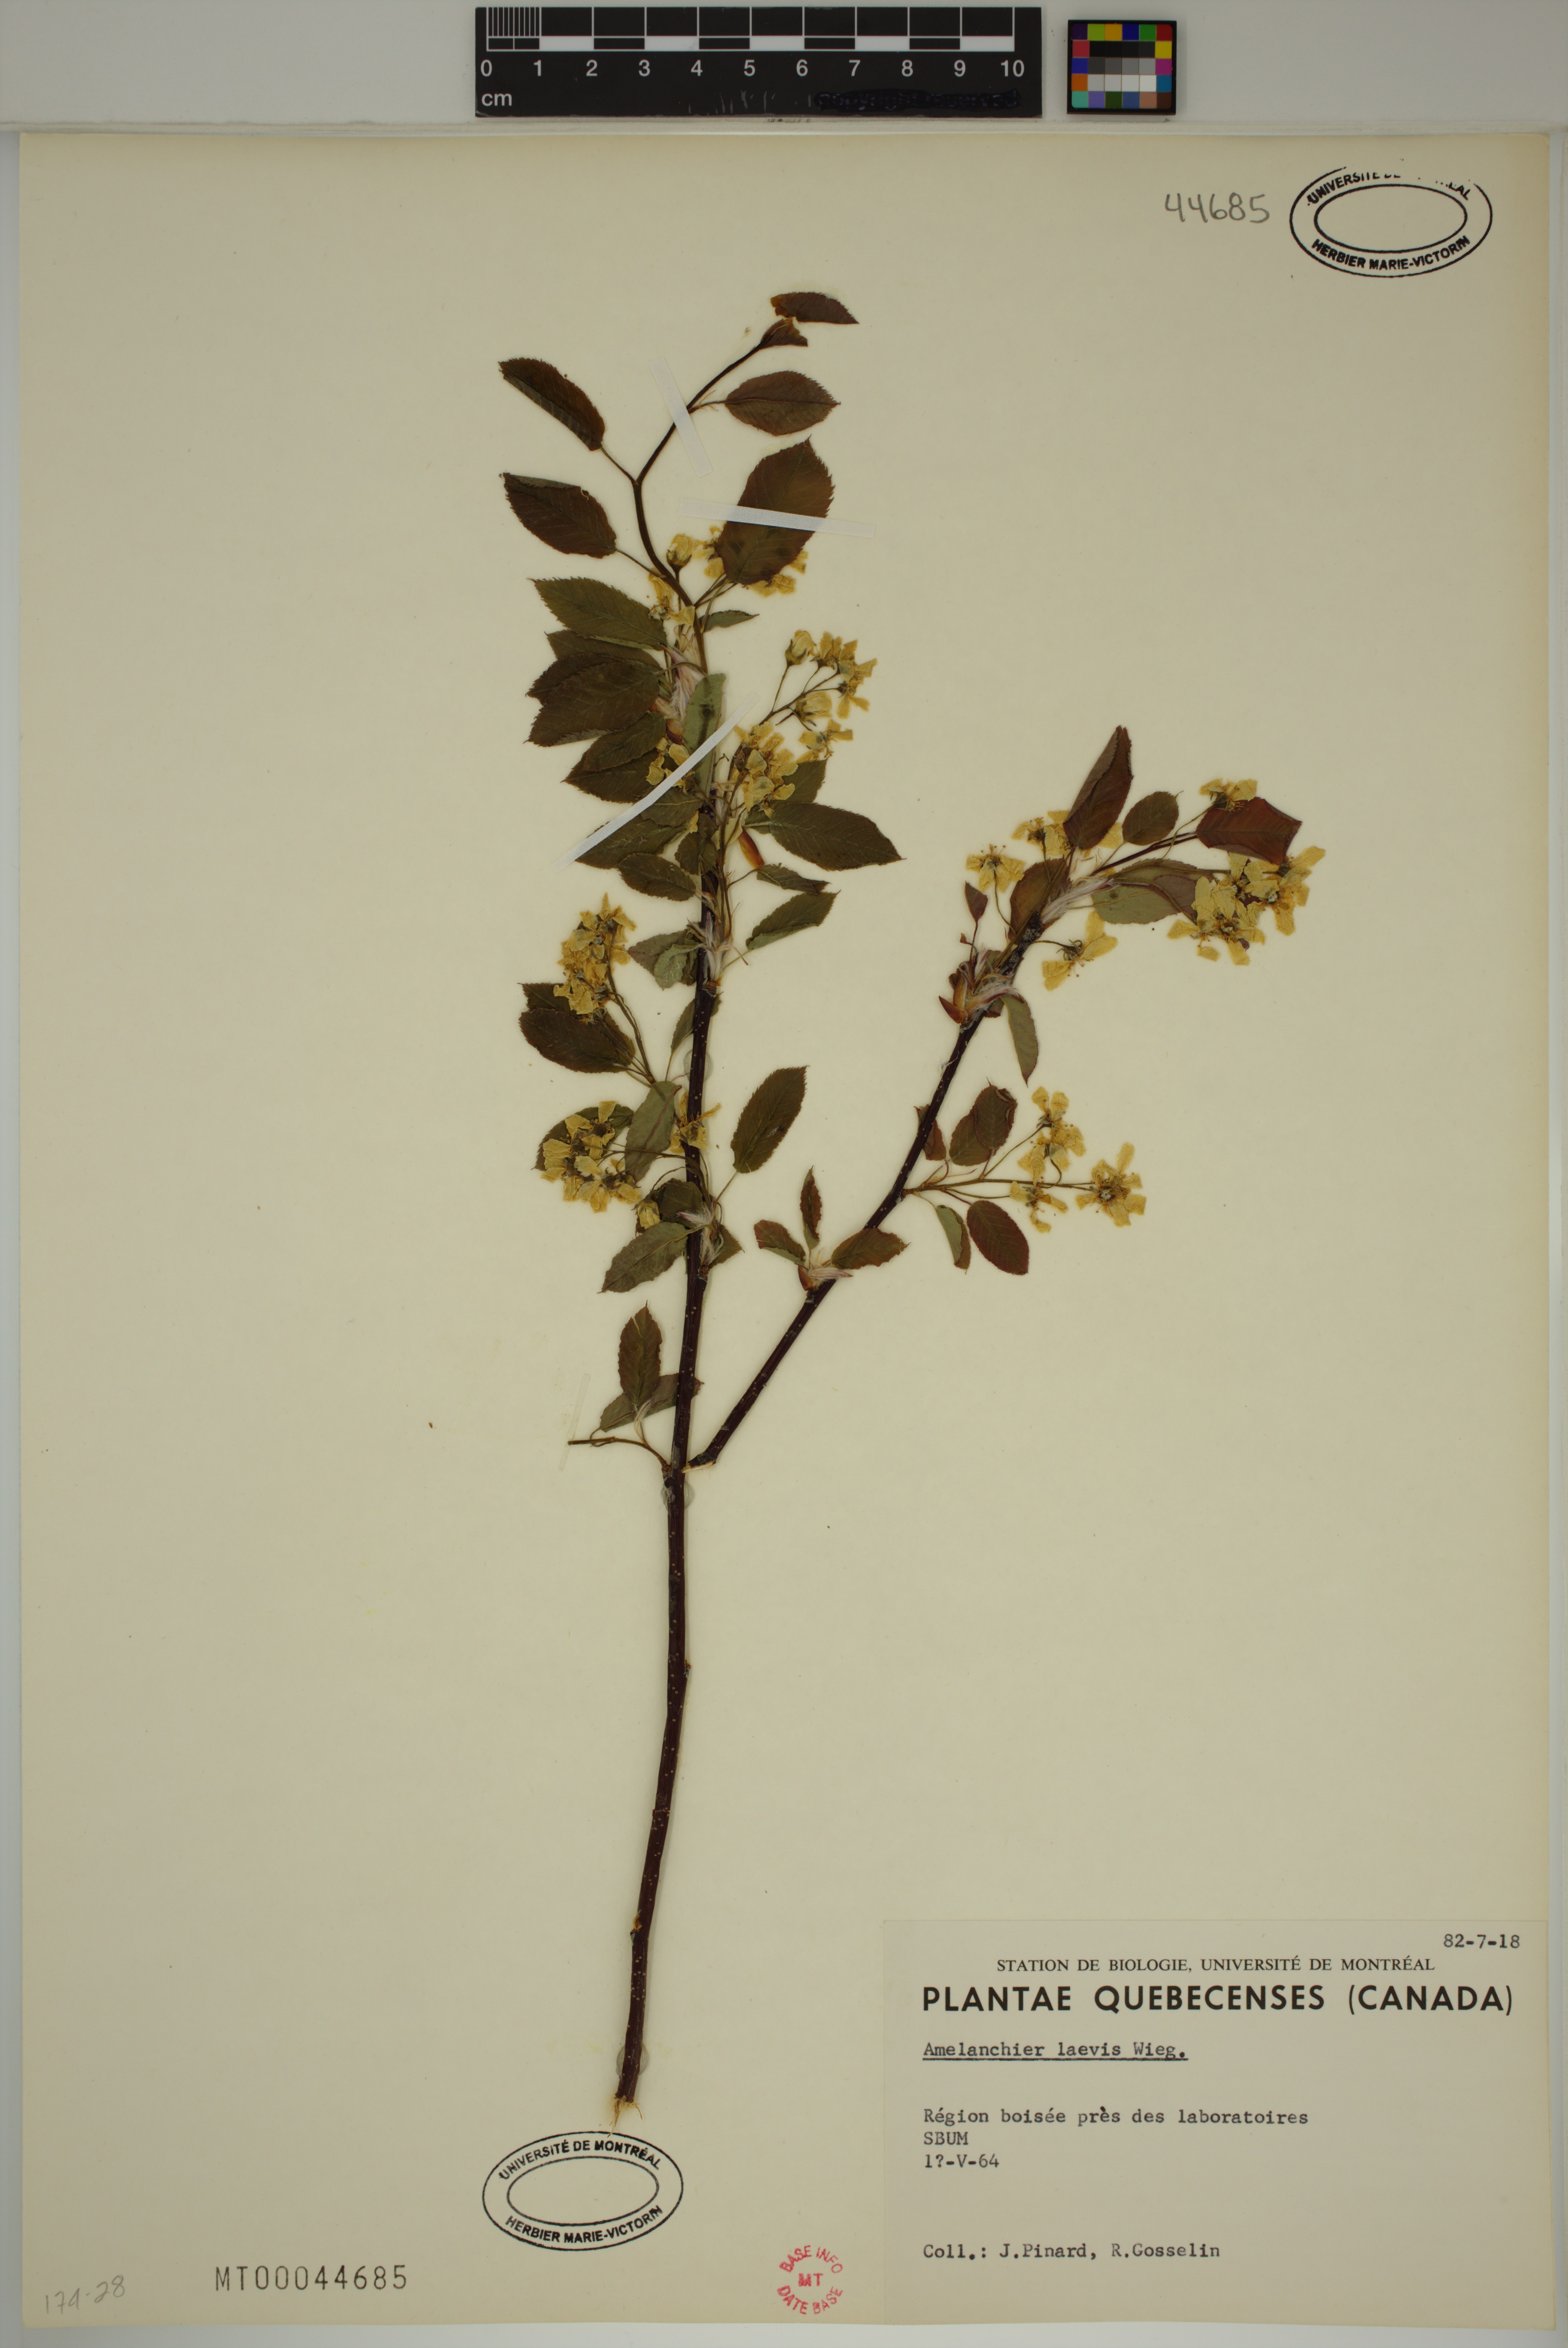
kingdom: Plantae
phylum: Tracheophyta
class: Magnoliopsida
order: Rosales
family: Rosaceae
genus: Amelanchier
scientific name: Amelanchier laevis
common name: Allegheny serviceberry
